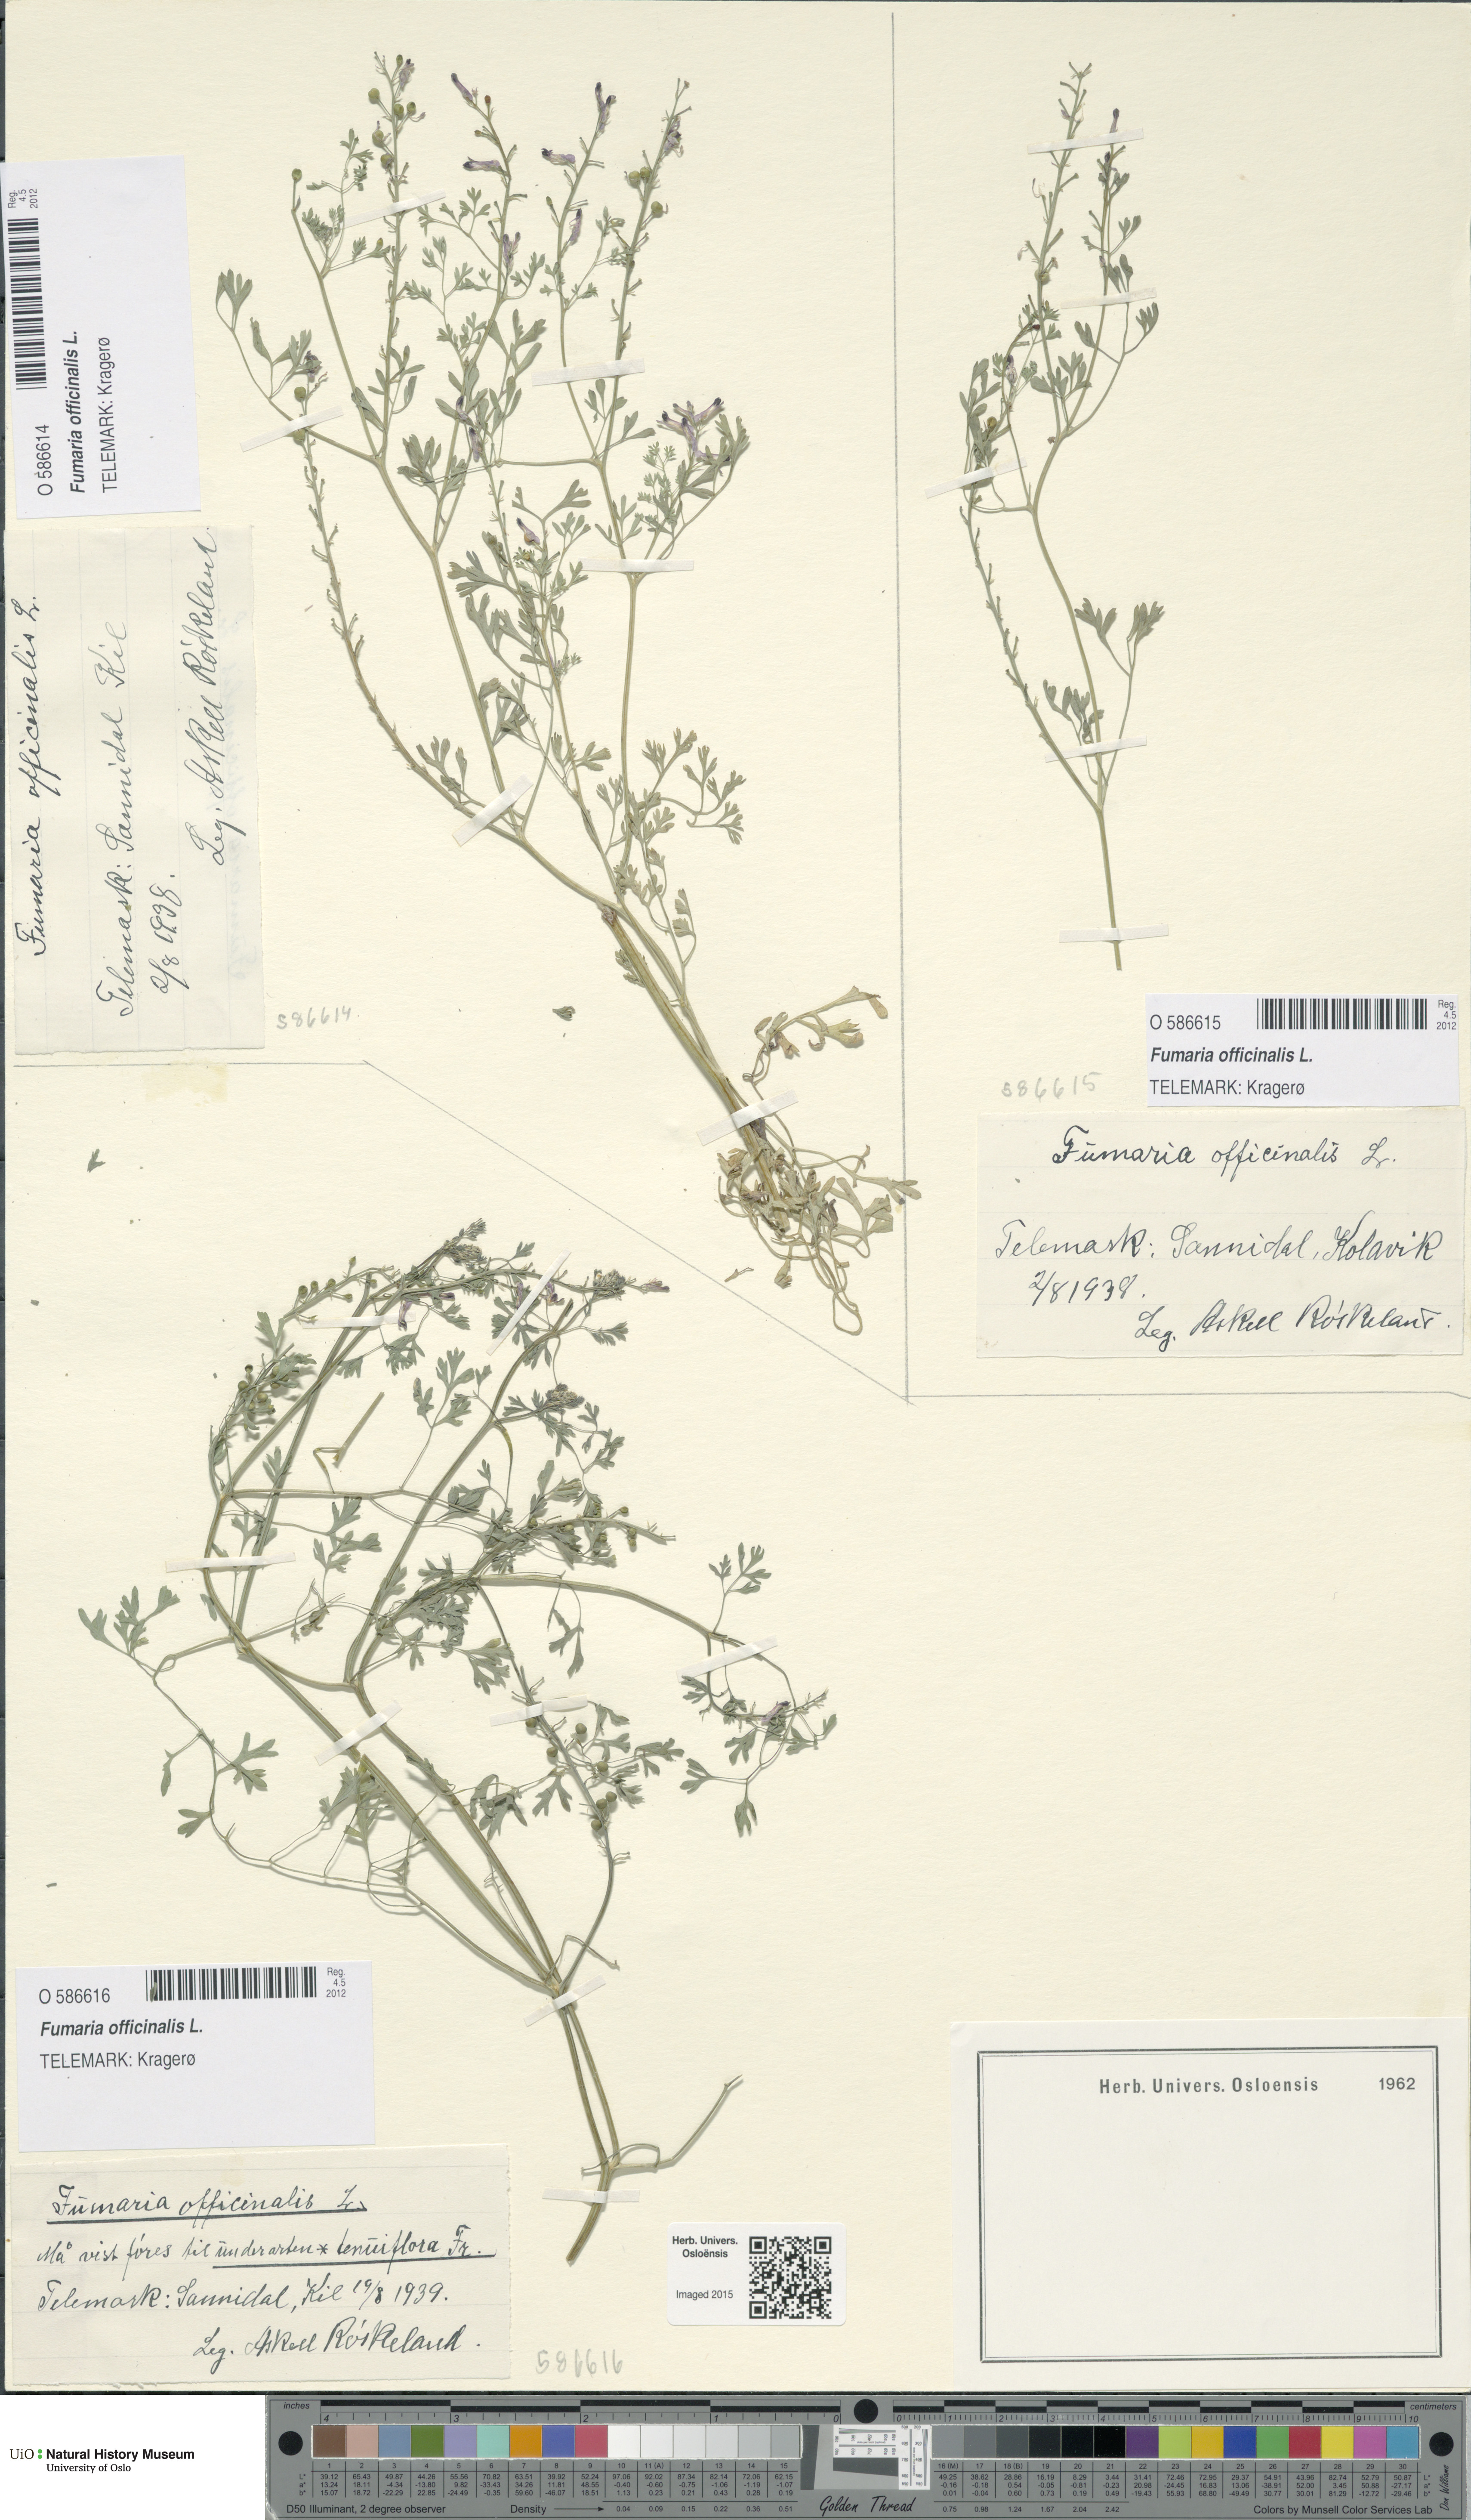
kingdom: Plantae
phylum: Tracheophyta
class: Magnoliopsida
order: Ranunculales
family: Papaveraceae
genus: Fumaria
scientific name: Fumaria officinalis
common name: Common fumitory
